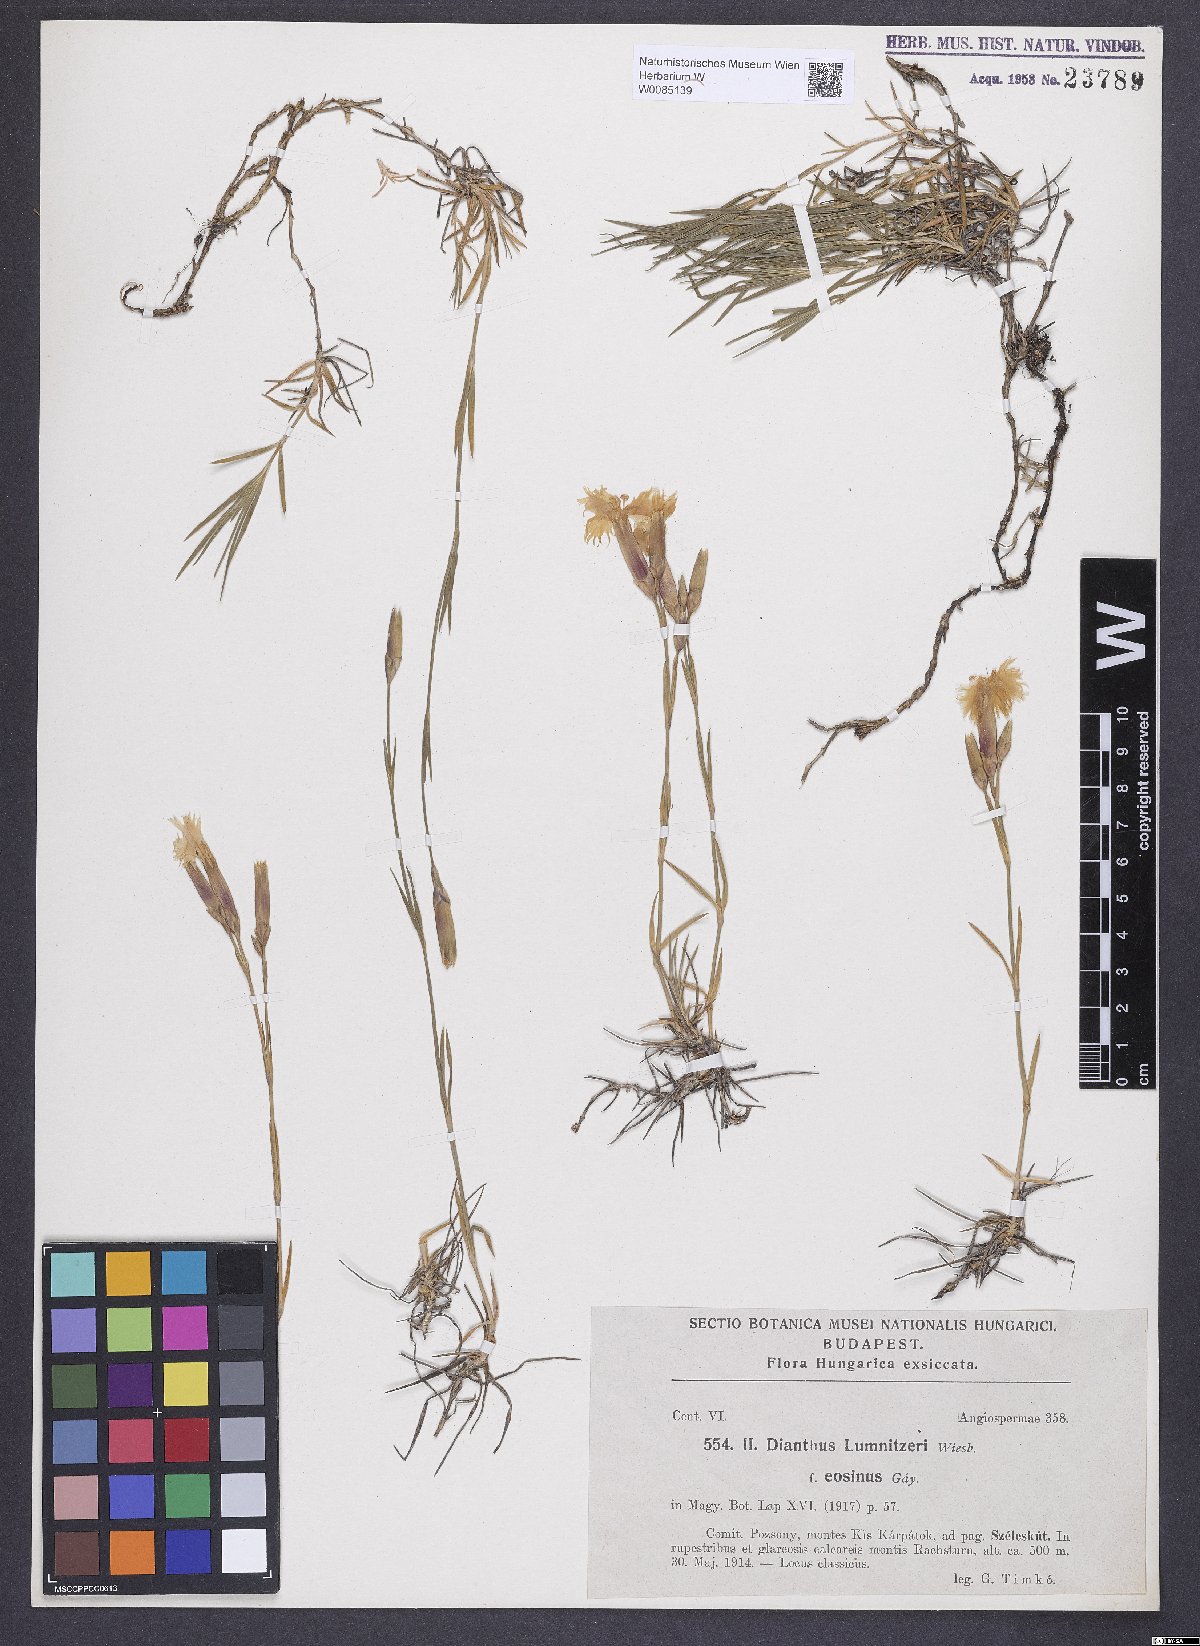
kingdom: Plantae
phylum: Tracheophyta
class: Magnoliopsida
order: Caryophyllales
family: Caryophyllaceae
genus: Dianthus
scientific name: Dianthus praecox
